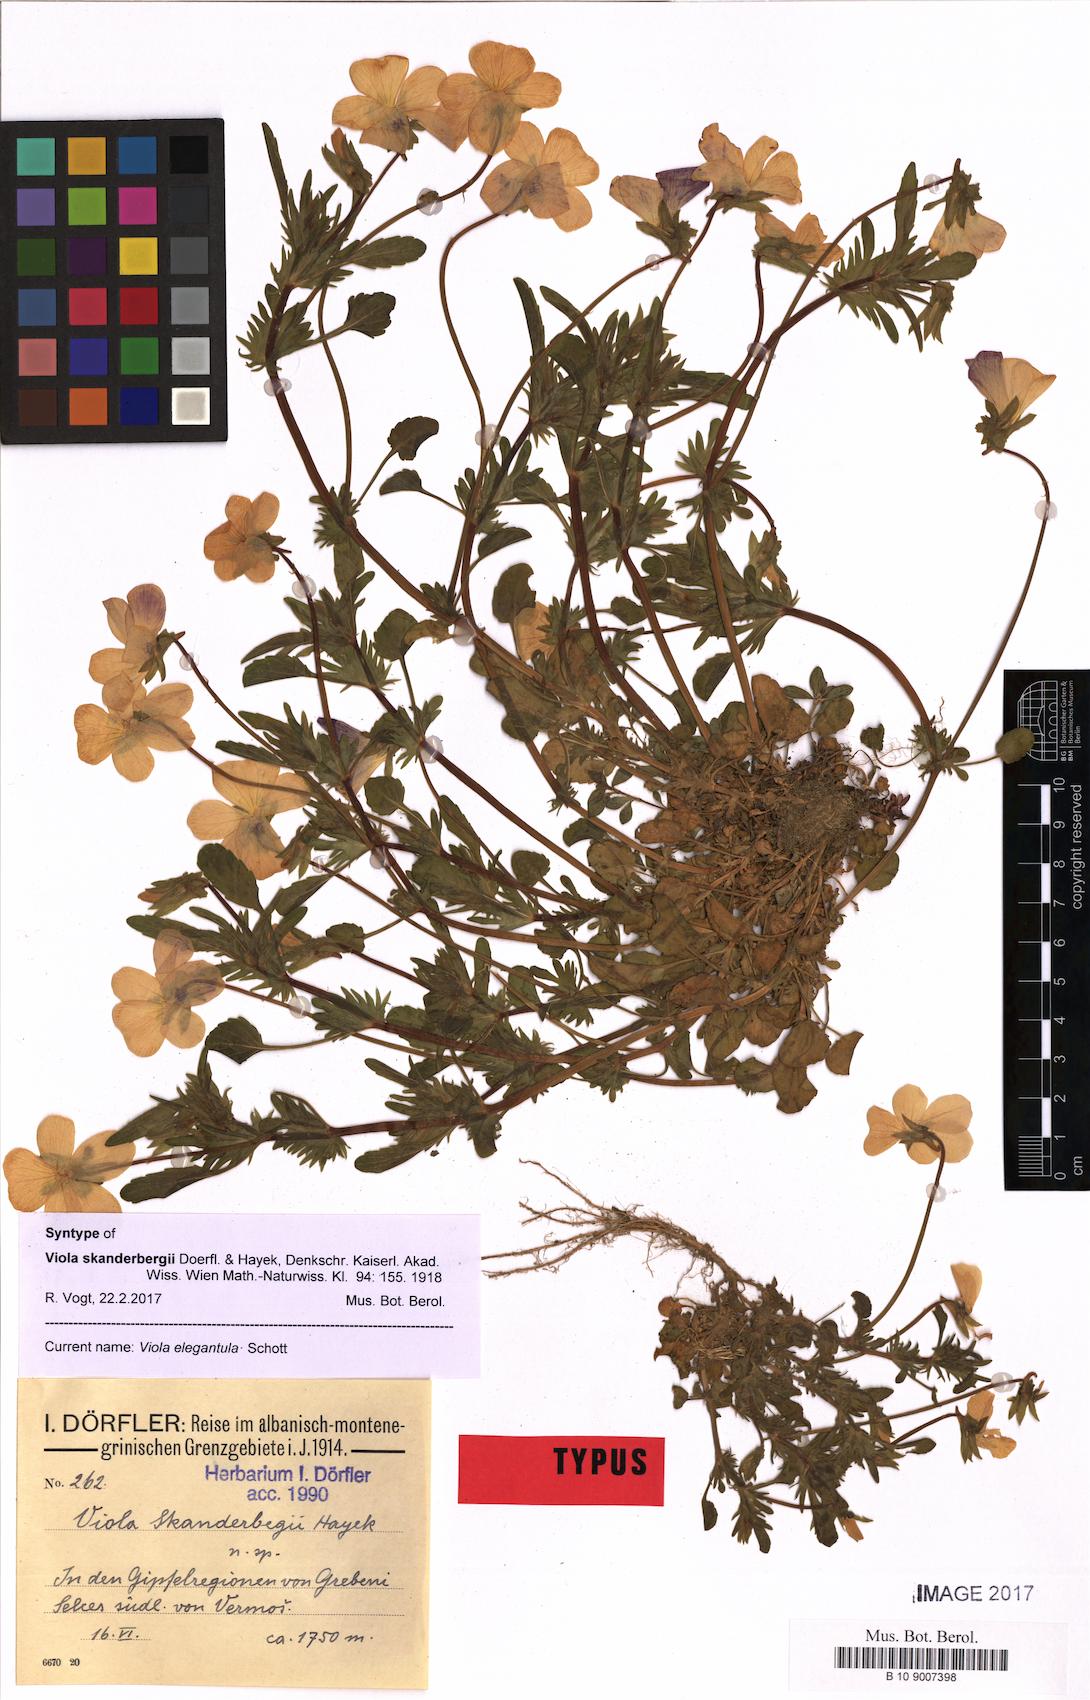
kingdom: Plantae
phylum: Tracheophyta
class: Magnoliopsida
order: Malpighiales
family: Violaceae
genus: Viola
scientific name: Viola elegantula
